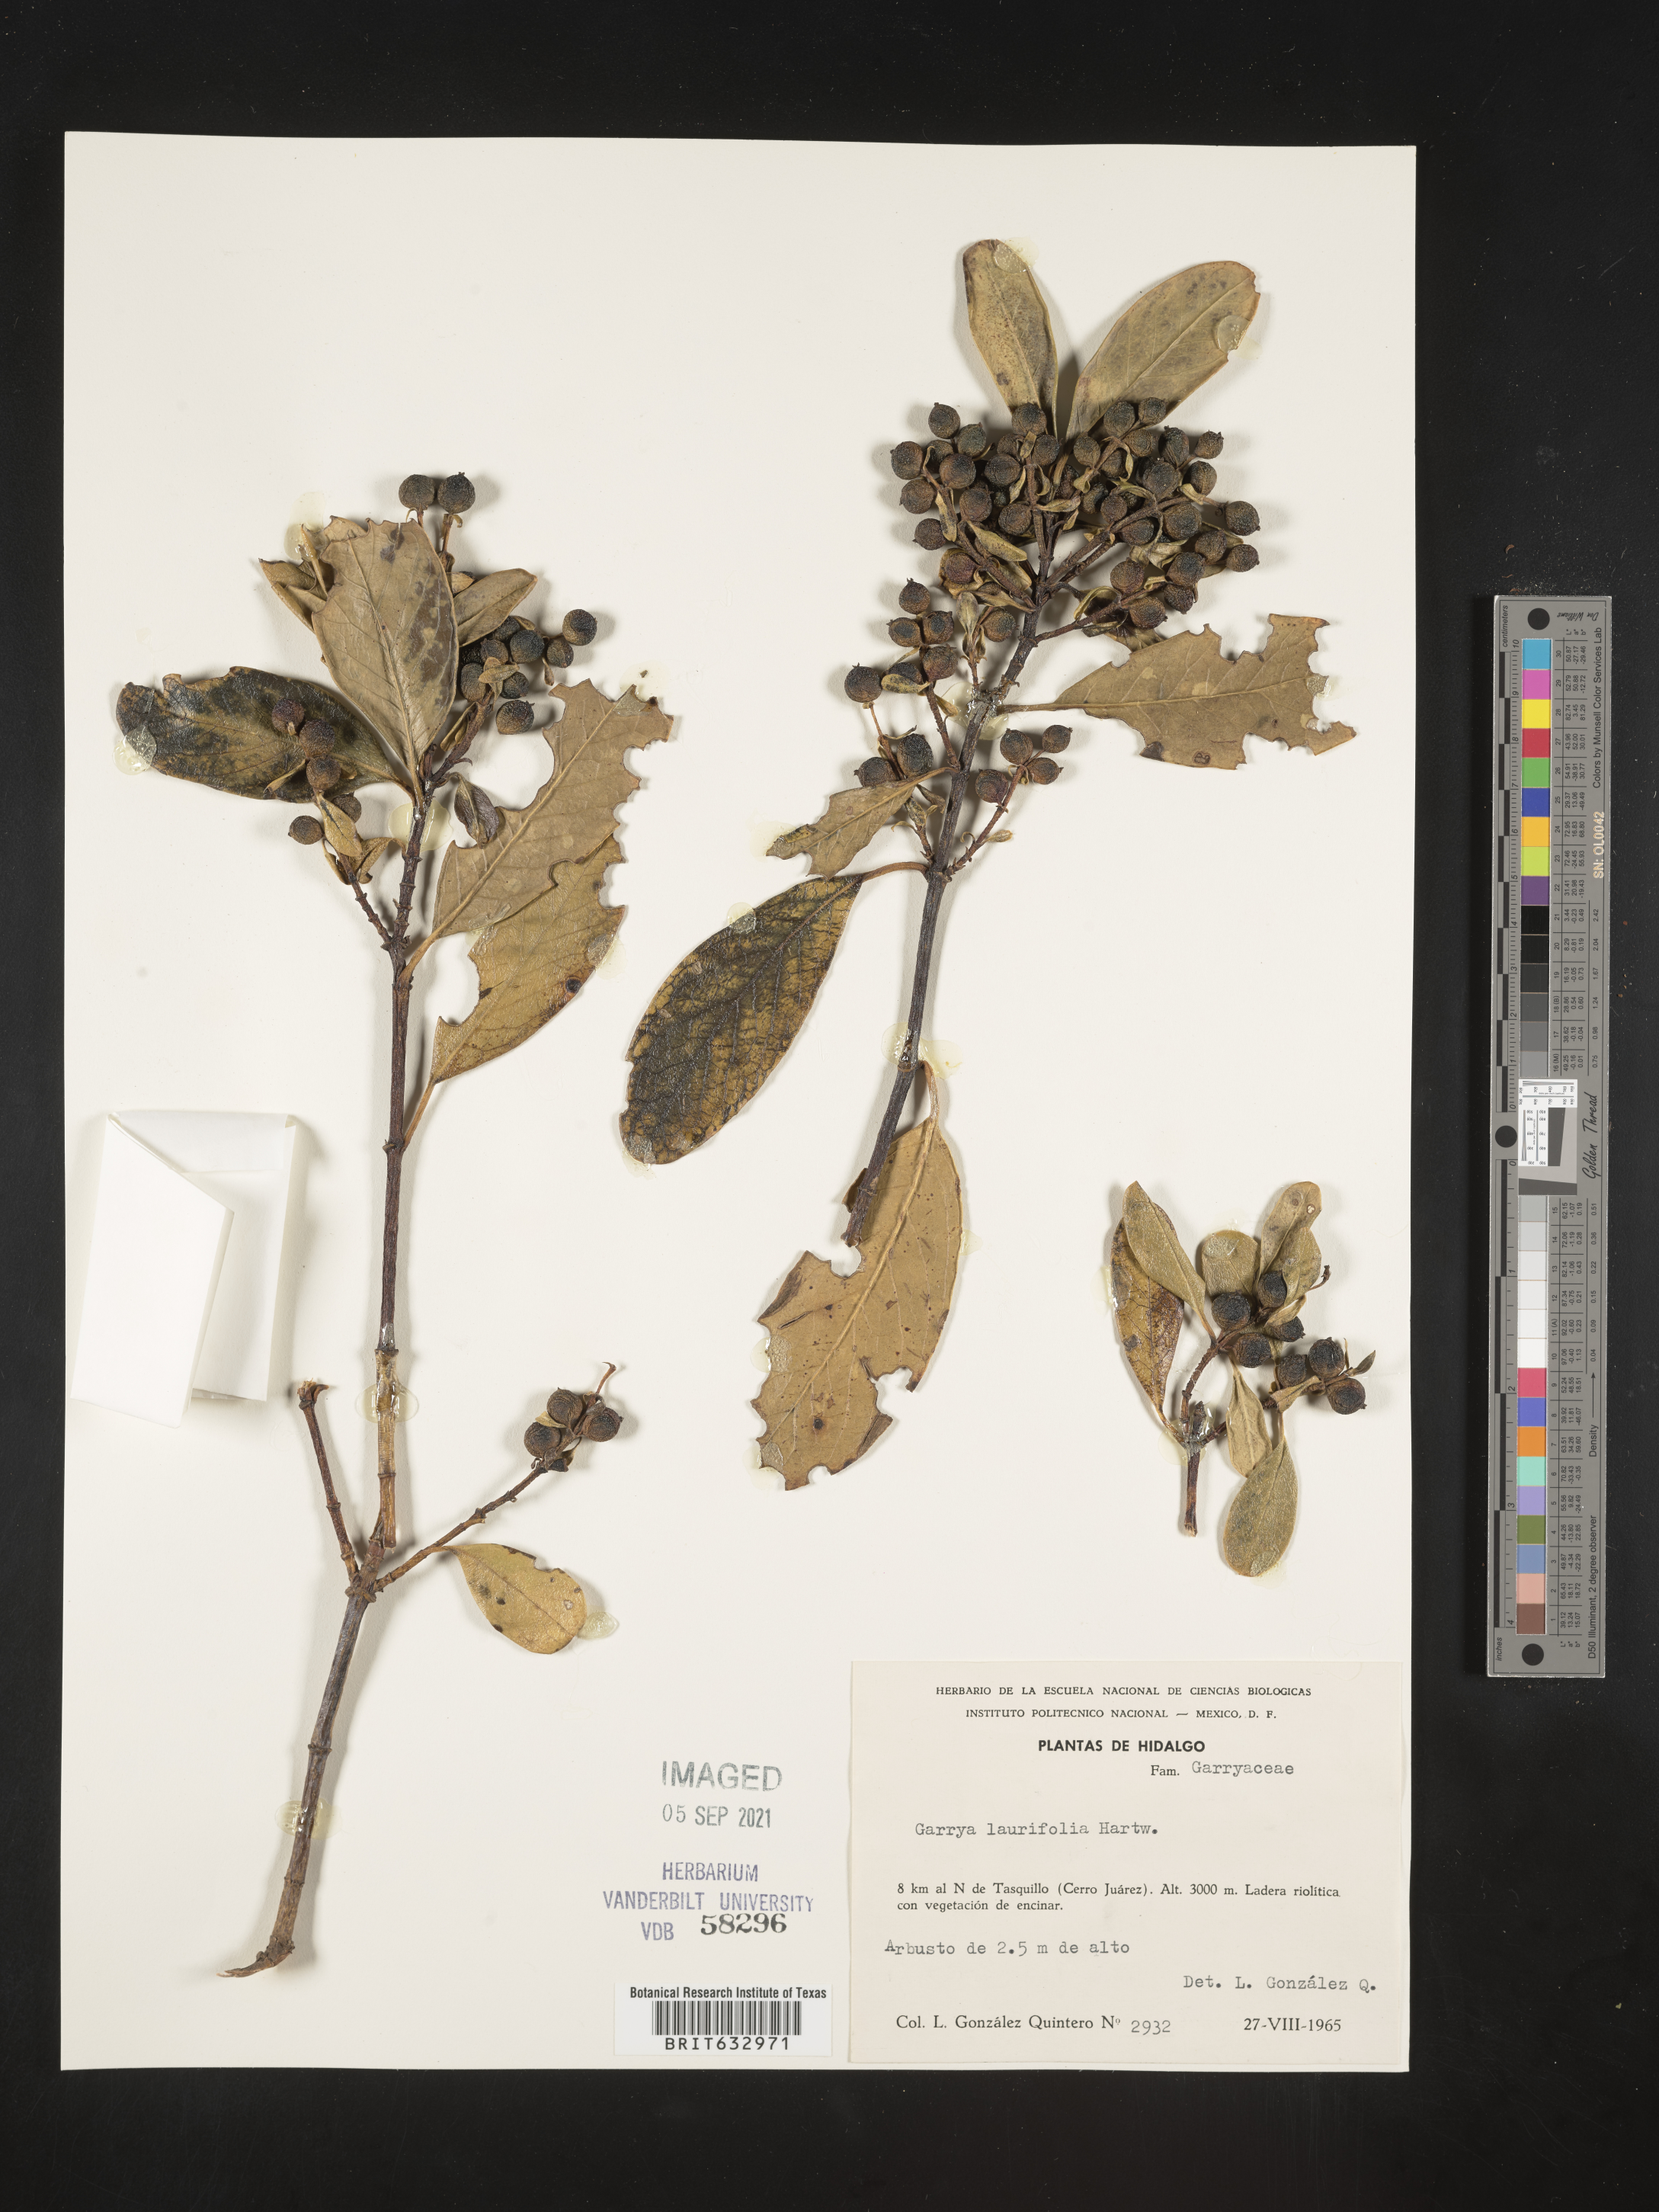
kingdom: Plantae
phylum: Tracheophyta
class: Magnoliopsida
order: Garryales
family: Garryaceae
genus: Garrya
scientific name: Garrya
